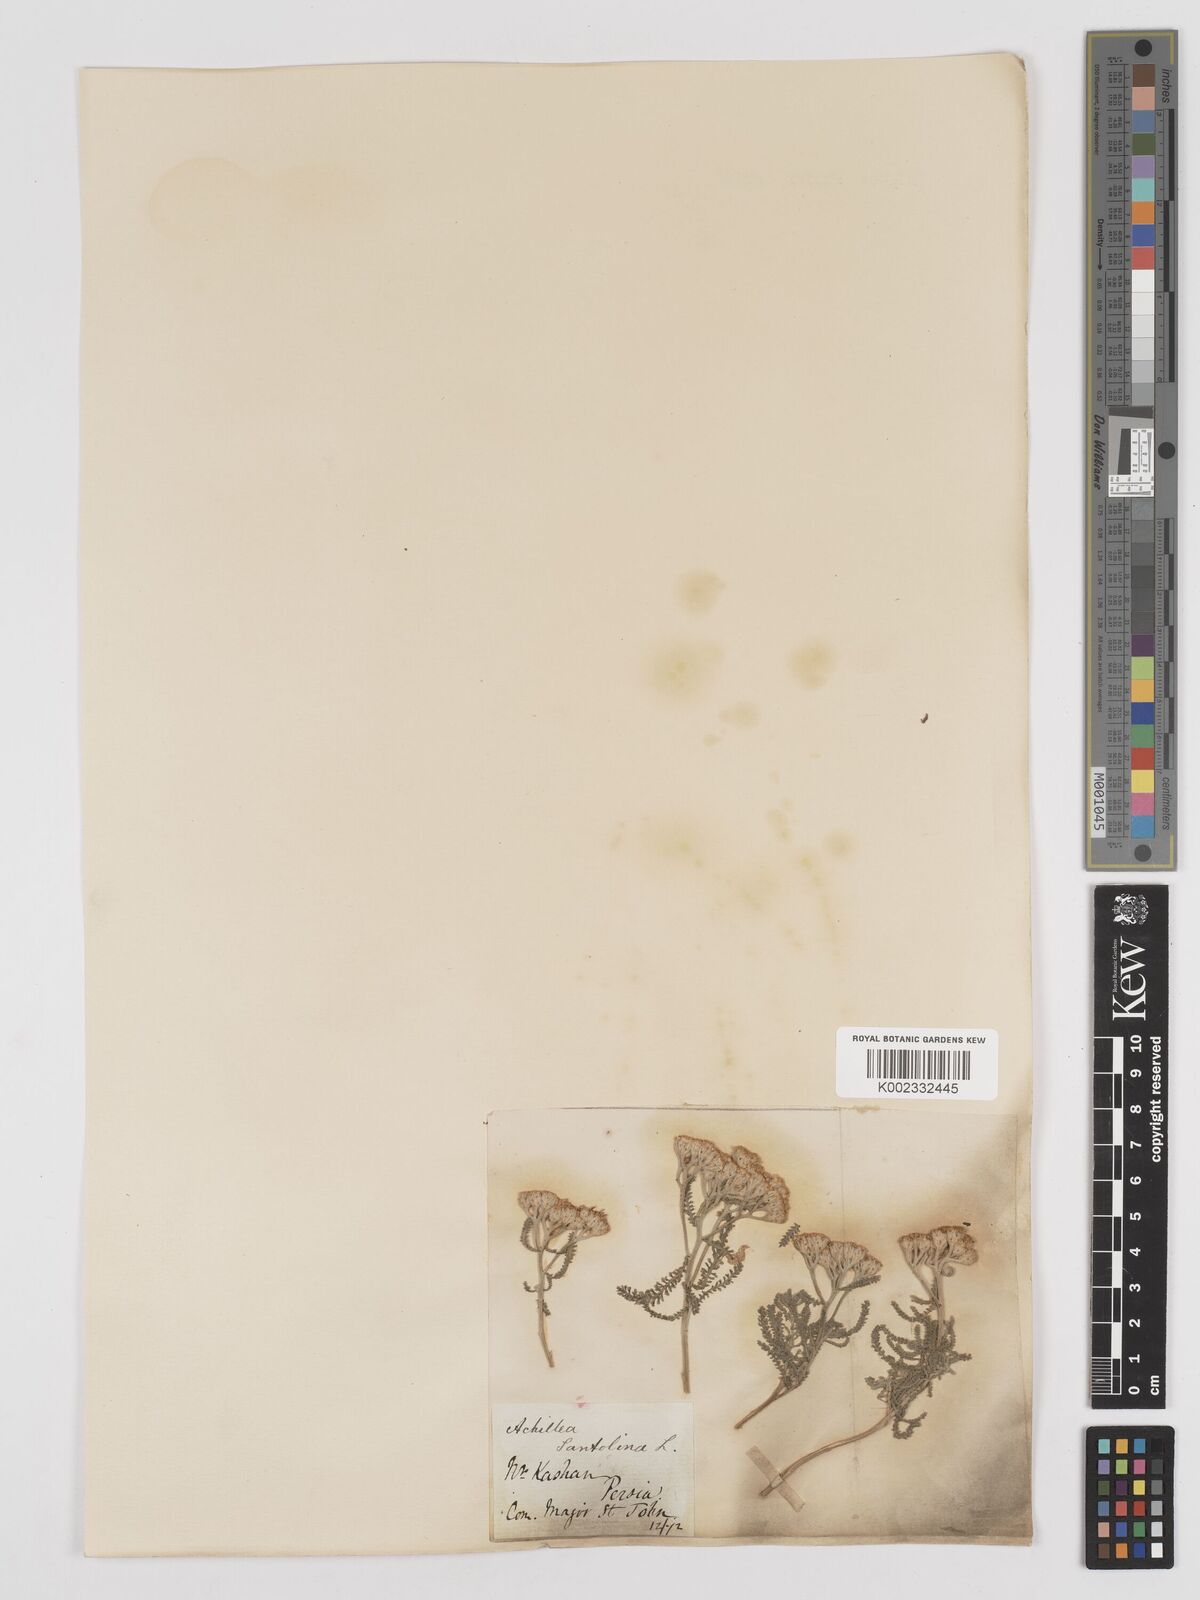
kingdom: Plantae
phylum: Tracheophyta
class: Magnoliopsida
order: Asterales
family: Asteraceae
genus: Achillea
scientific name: Achillea tenuifolia
